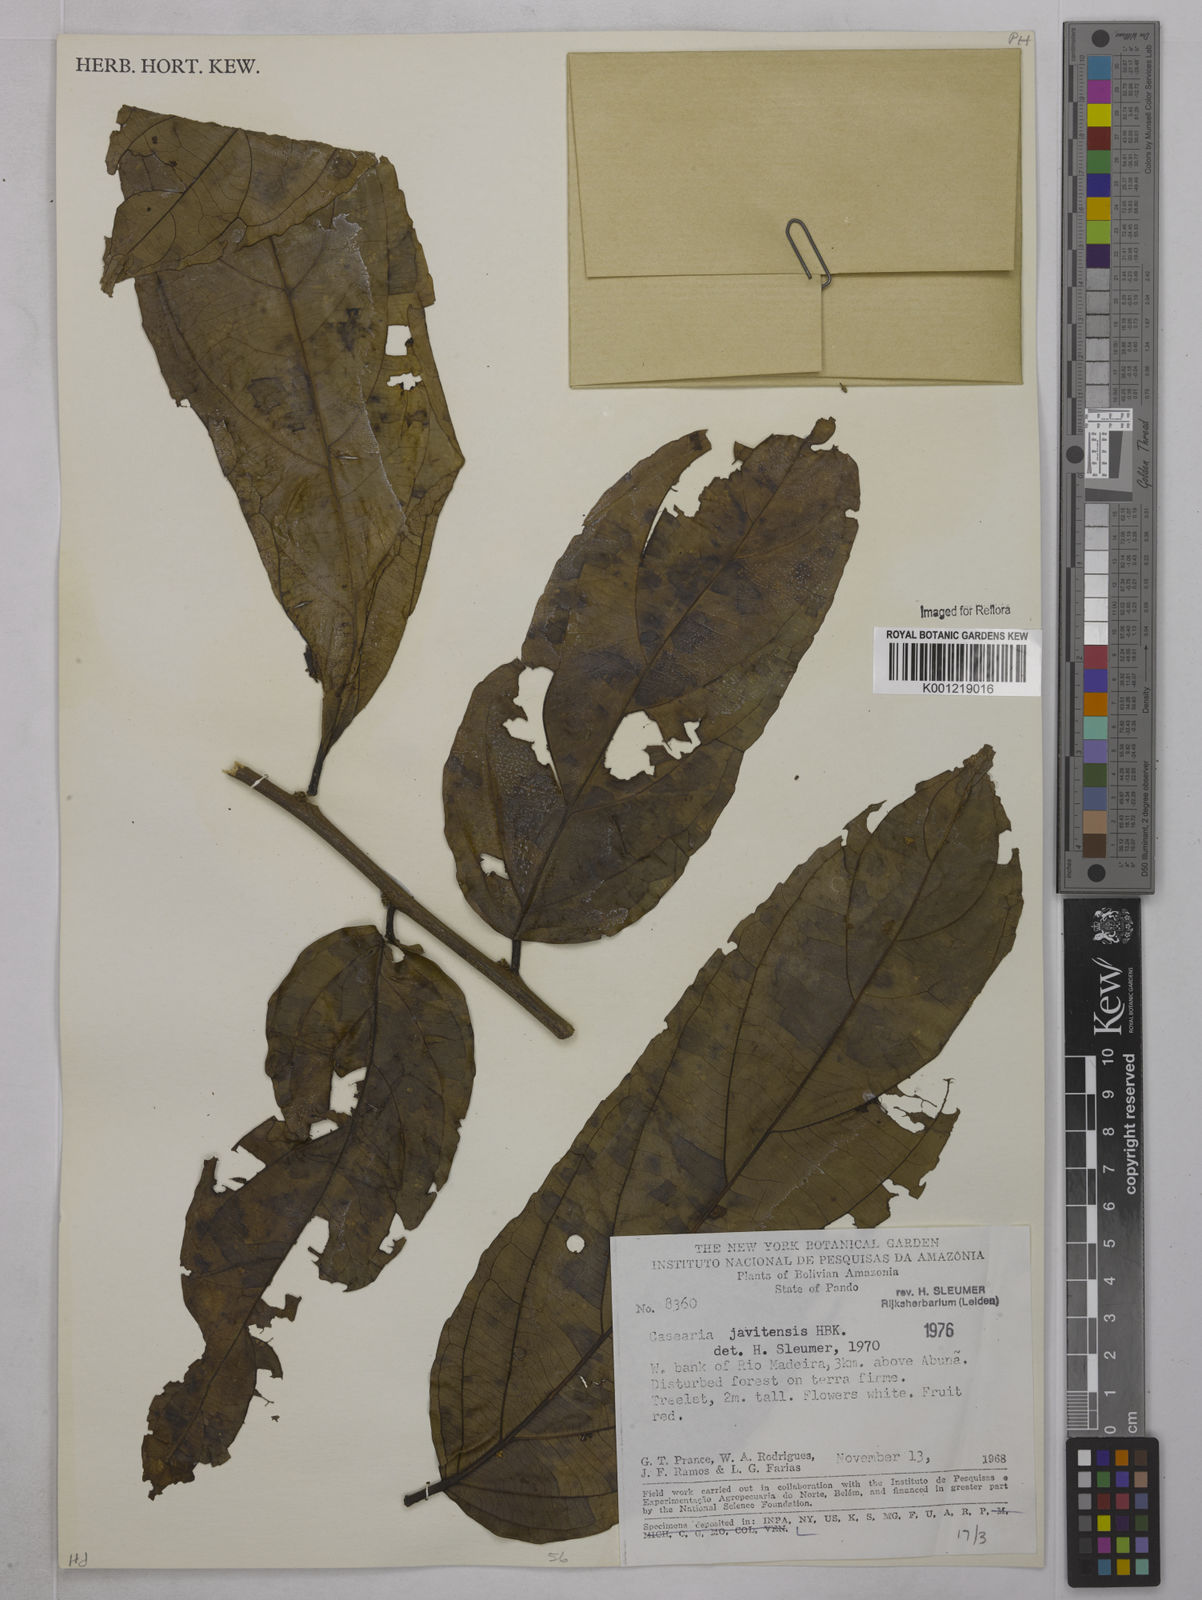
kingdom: Plantae
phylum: Tracheophyta
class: Magnoliopsida
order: Malpighiales
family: Salicaceae
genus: Piparea
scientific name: Piparea multiflora
